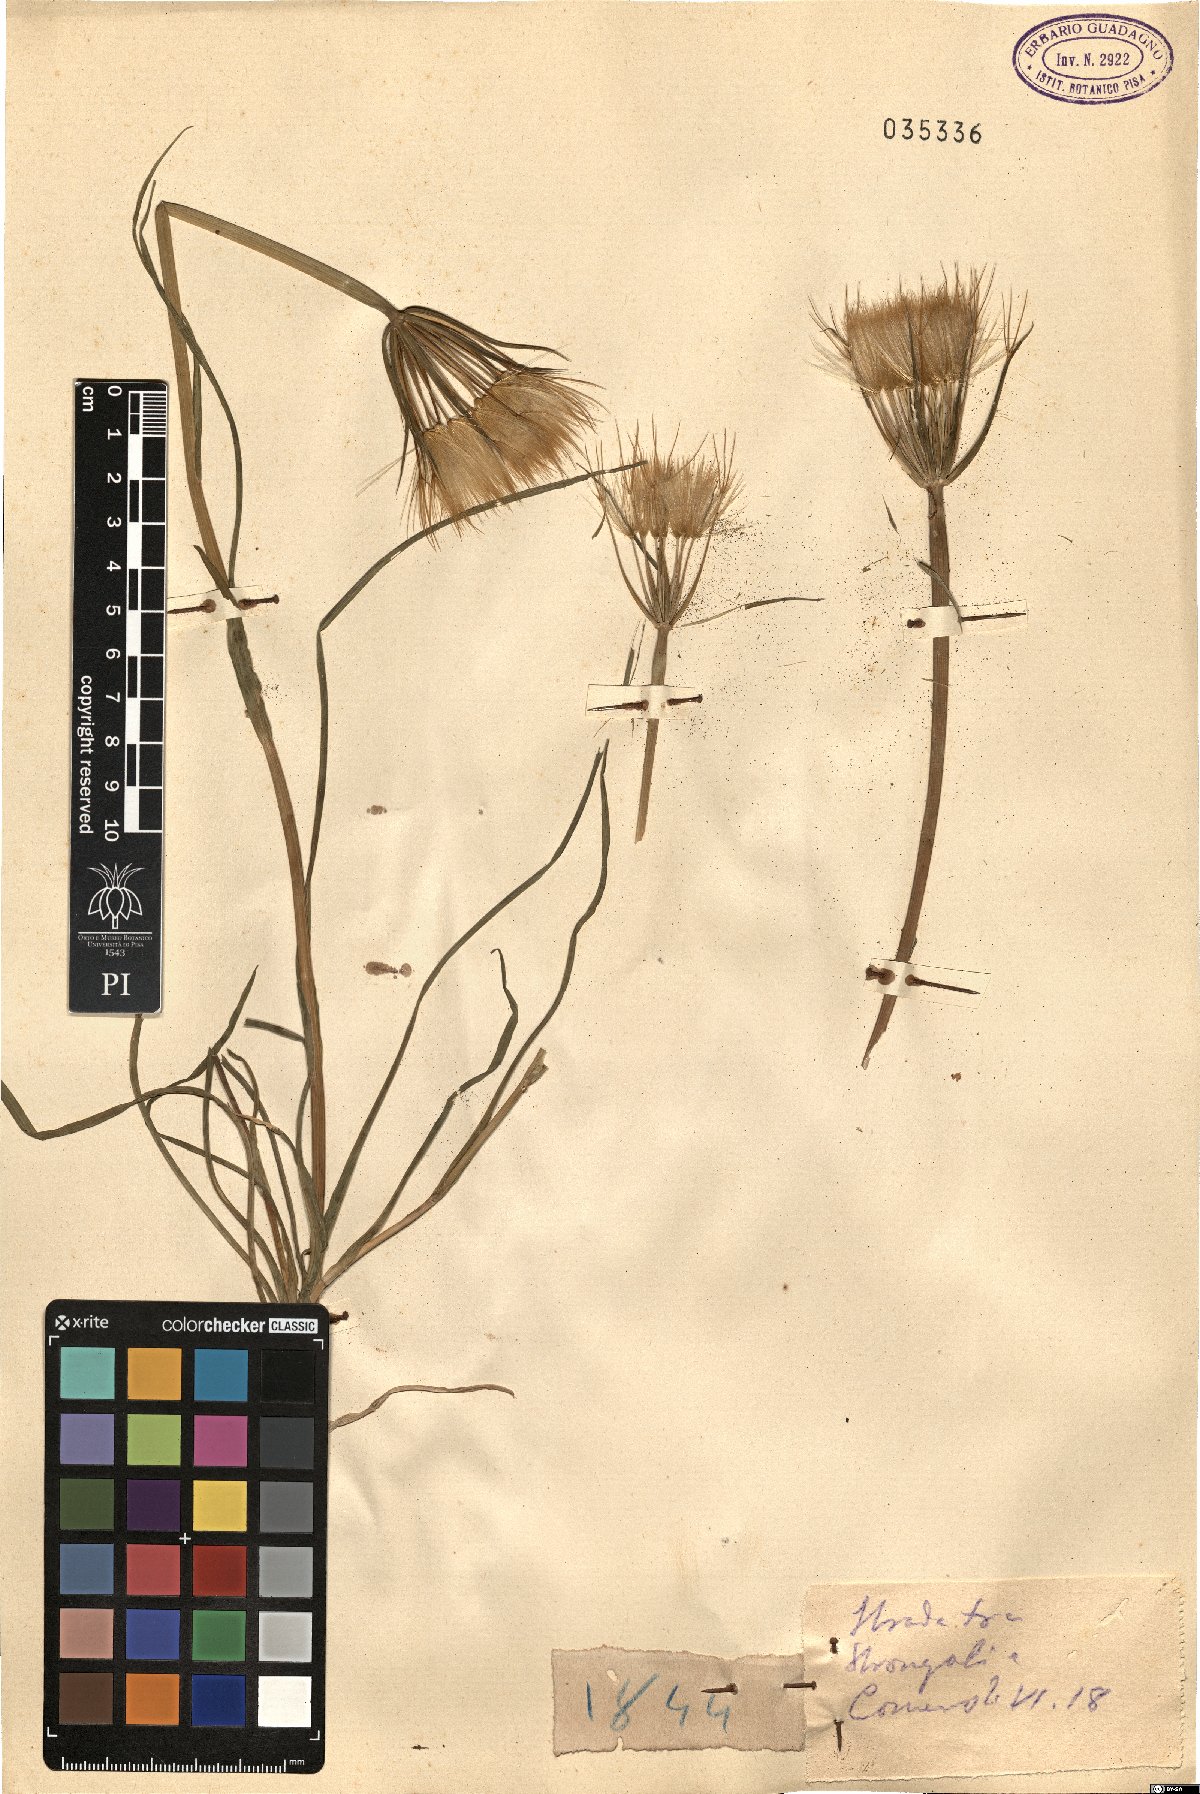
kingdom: Plantae
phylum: Tracheophyta
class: Magnoliopsida
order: Asterales
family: Asteraceae
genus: Geropogon
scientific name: Geropogon
